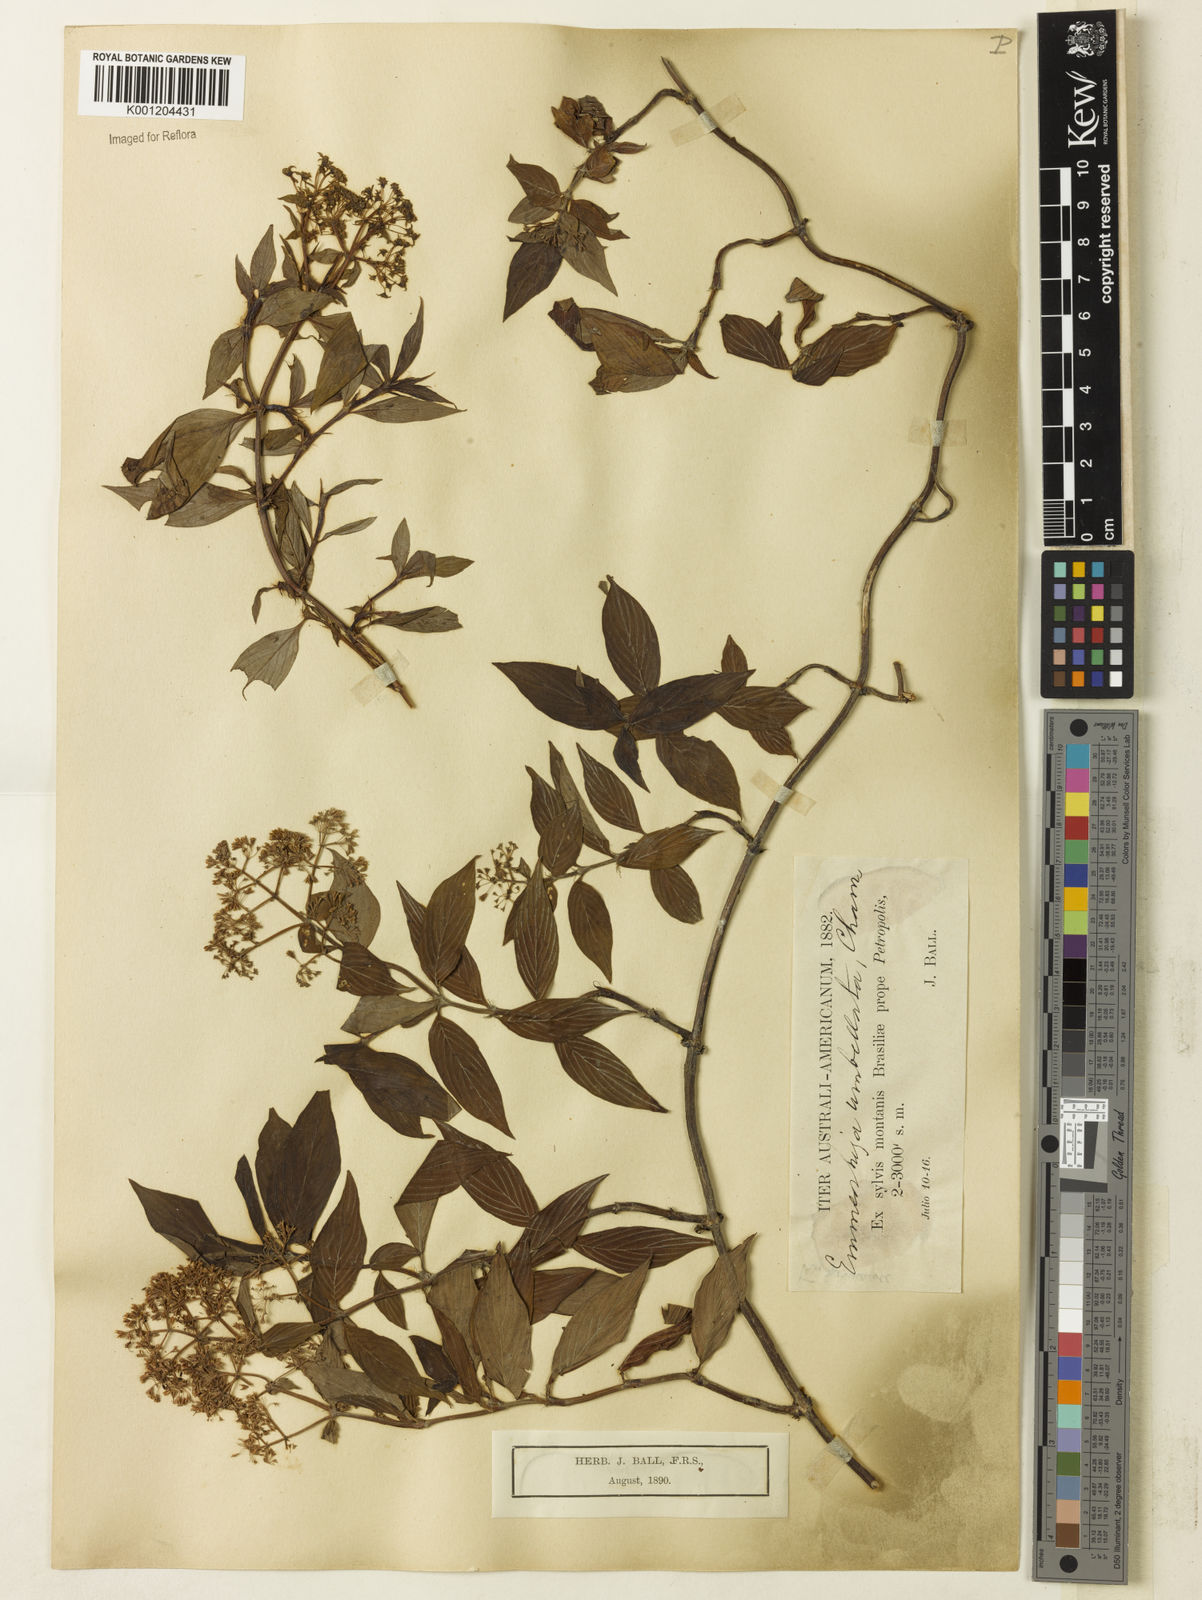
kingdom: Plantae
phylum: Tracheophyta
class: Magnoliopsida
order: Gentianales
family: Rubiaceae
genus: Emmeorhiza
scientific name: Emmeorhiza umbellata
